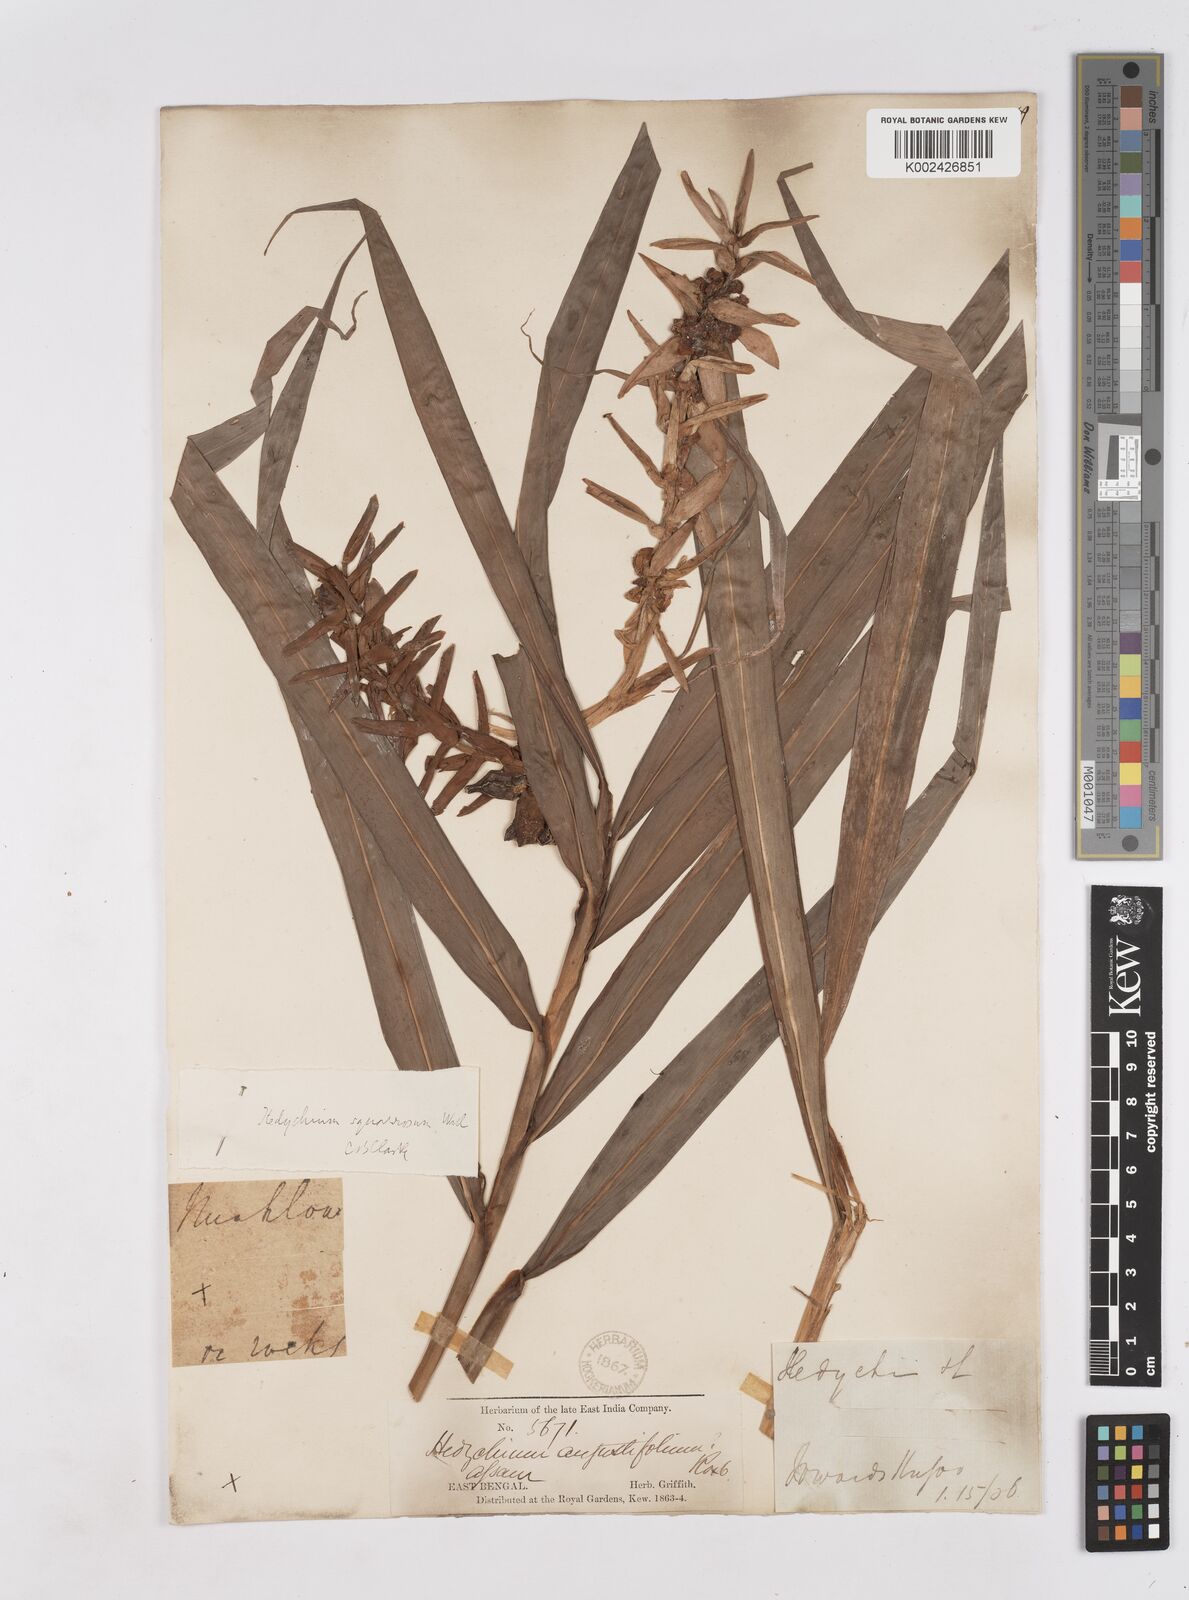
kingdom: Plantae
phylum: Tracheophyta
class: Liliopsida
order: Zingiberales
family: Zingiberaceae
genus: Hedychium
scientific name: Hedychium coccineum
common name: Red ginger-lily
